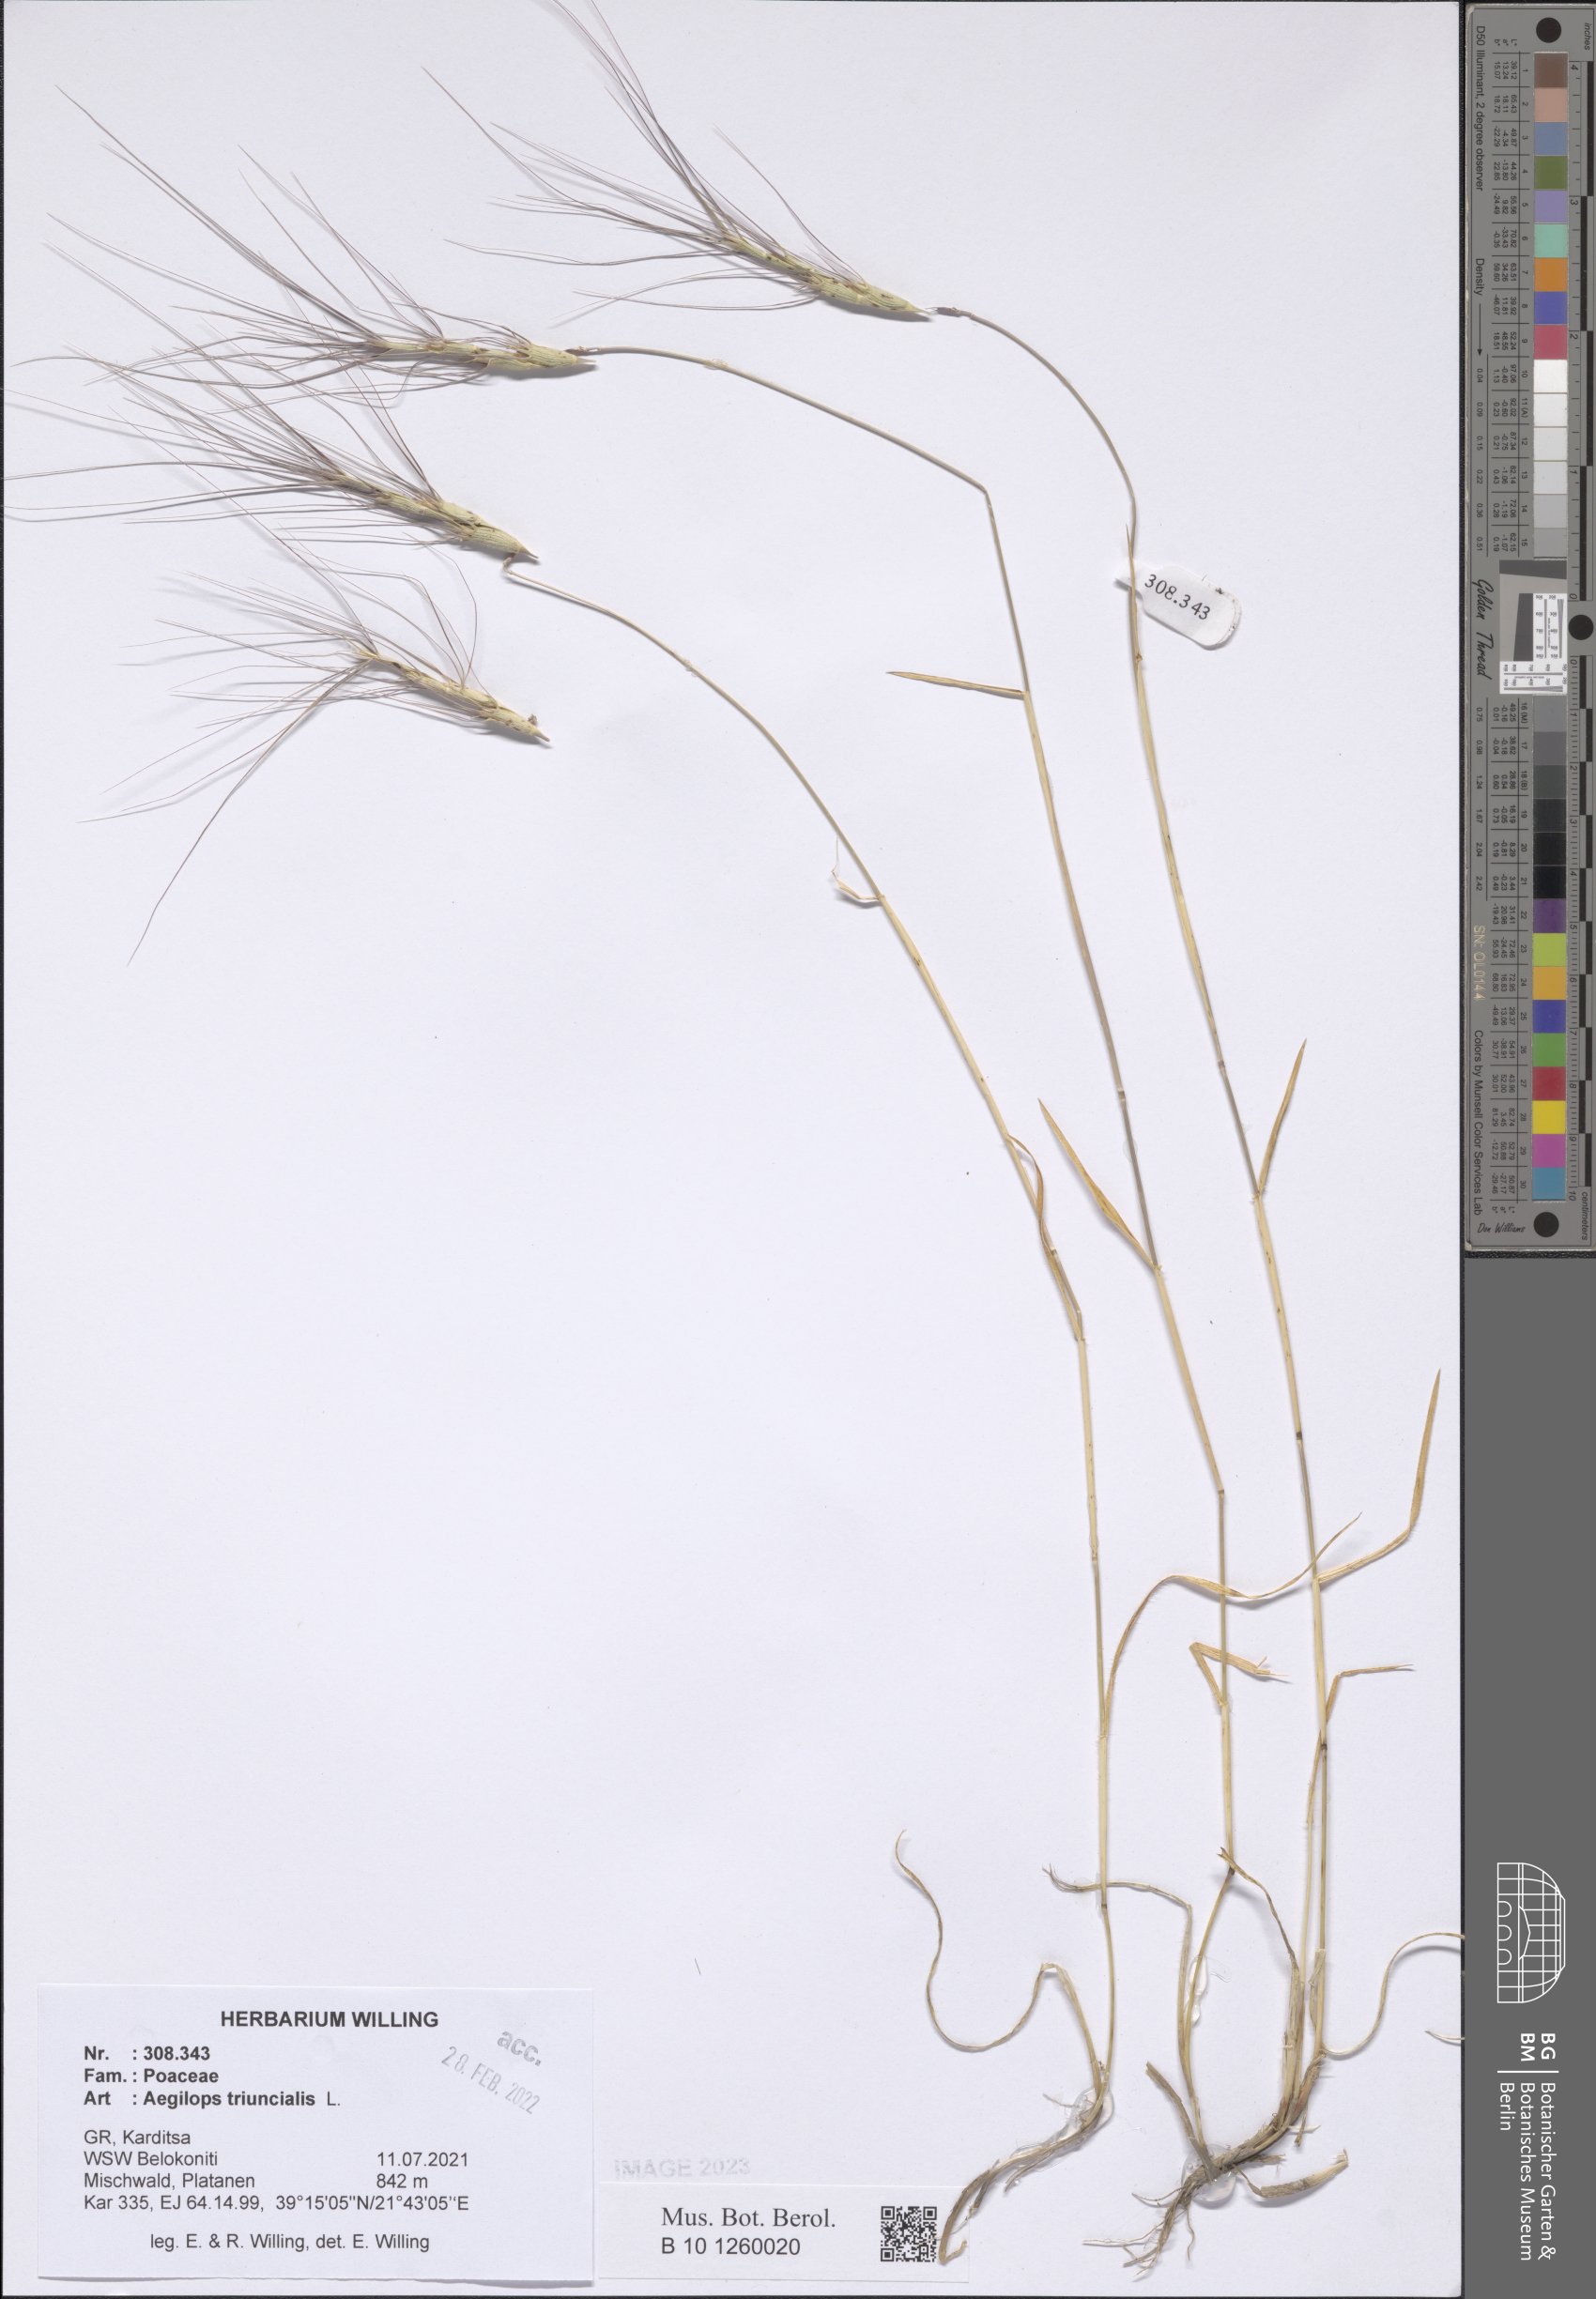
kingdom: Plantae
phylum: Tracheophyta
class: Liliopsida
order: Poales
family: Poaceae
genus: Aegilops
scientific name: Aegilops triuncialis
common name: Barb goat grass
